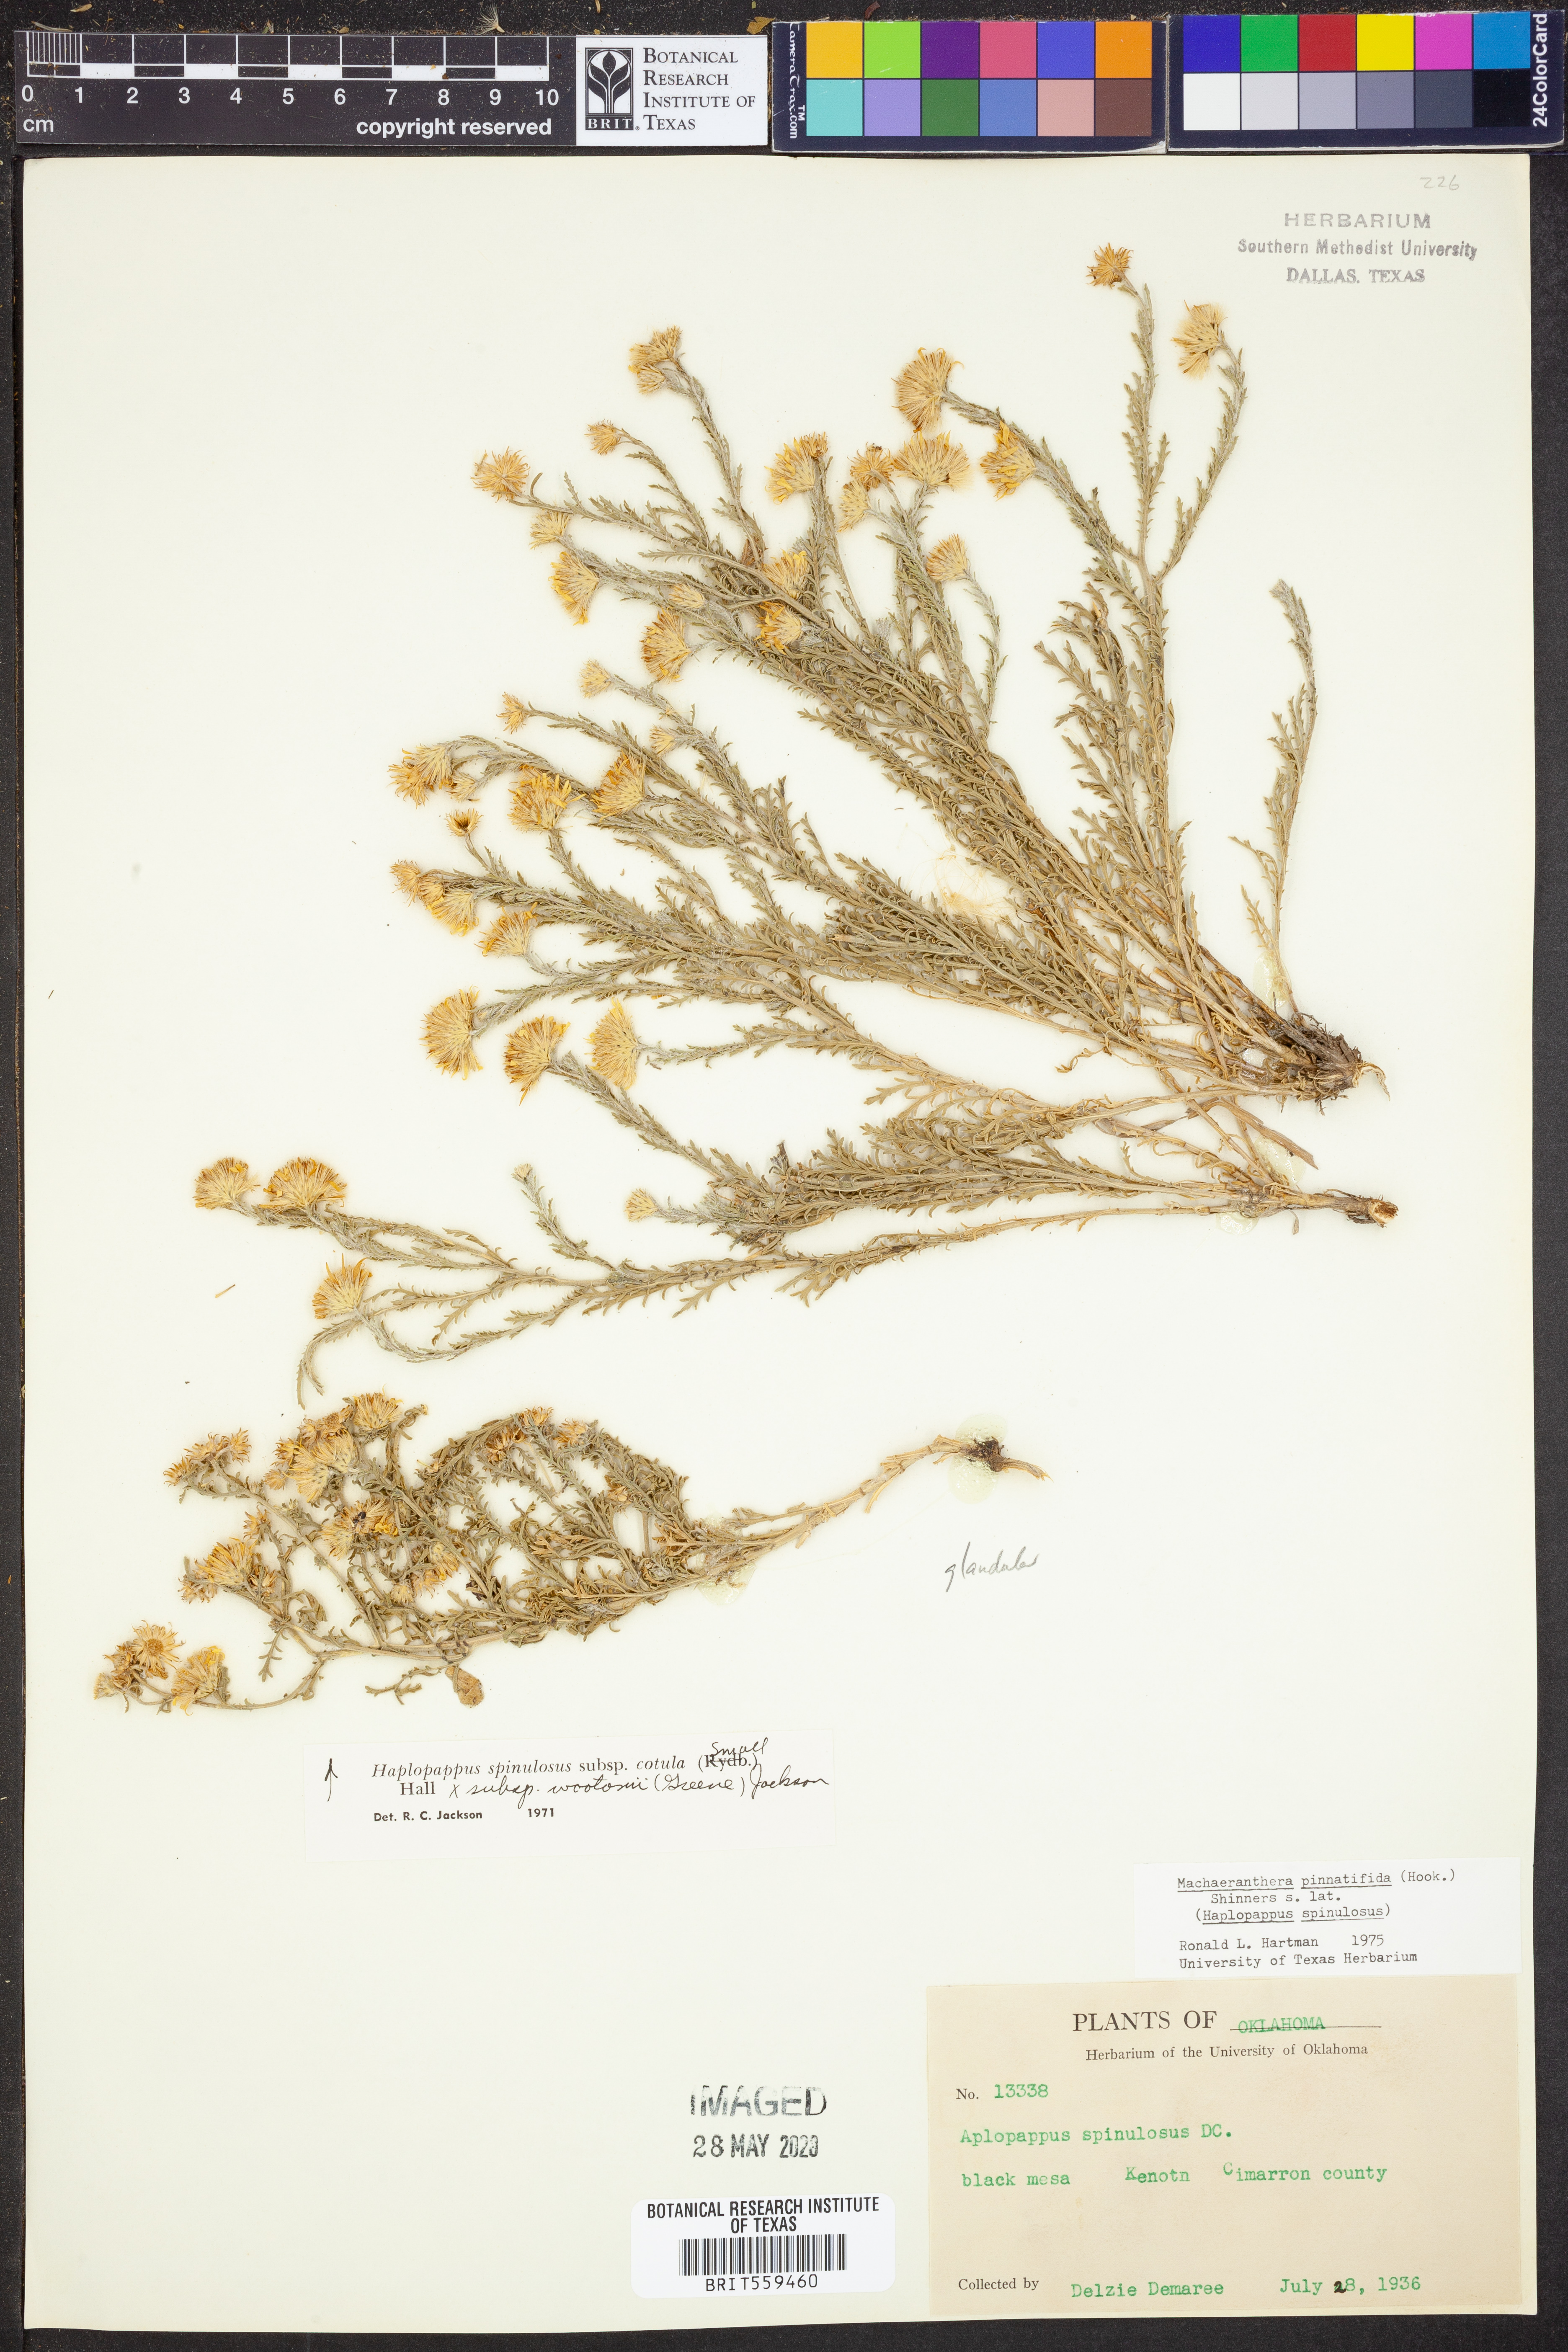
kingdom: Plantae
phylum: Tracheophyta
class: Magnoliopsida
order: Asterales
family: Asteraceae
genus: Xanthisma
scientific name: Xanthisma spinulosum
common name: Spiny goldenweed
